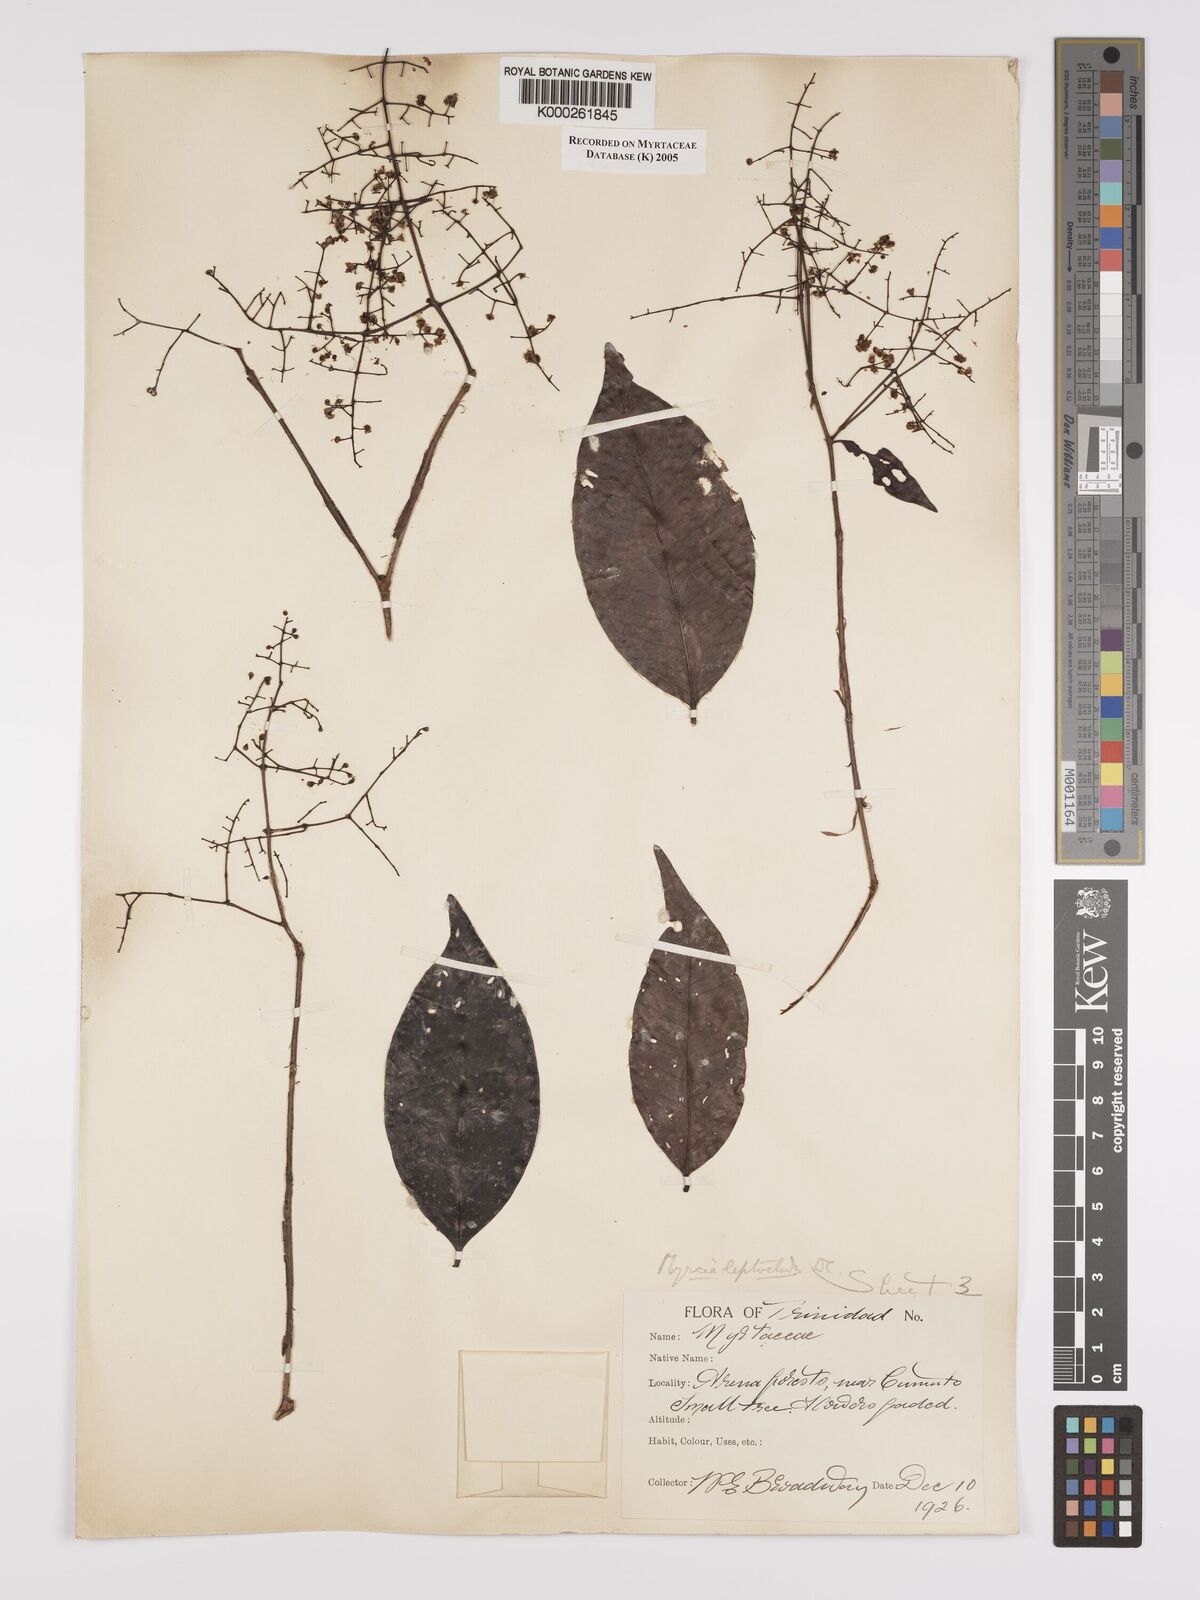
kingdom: Plantae
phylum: Tracheophyta
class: Magnoliopsida
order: Myrtales
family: Myrtaceae
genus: Myrcia
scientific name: Myrcia amazonica
